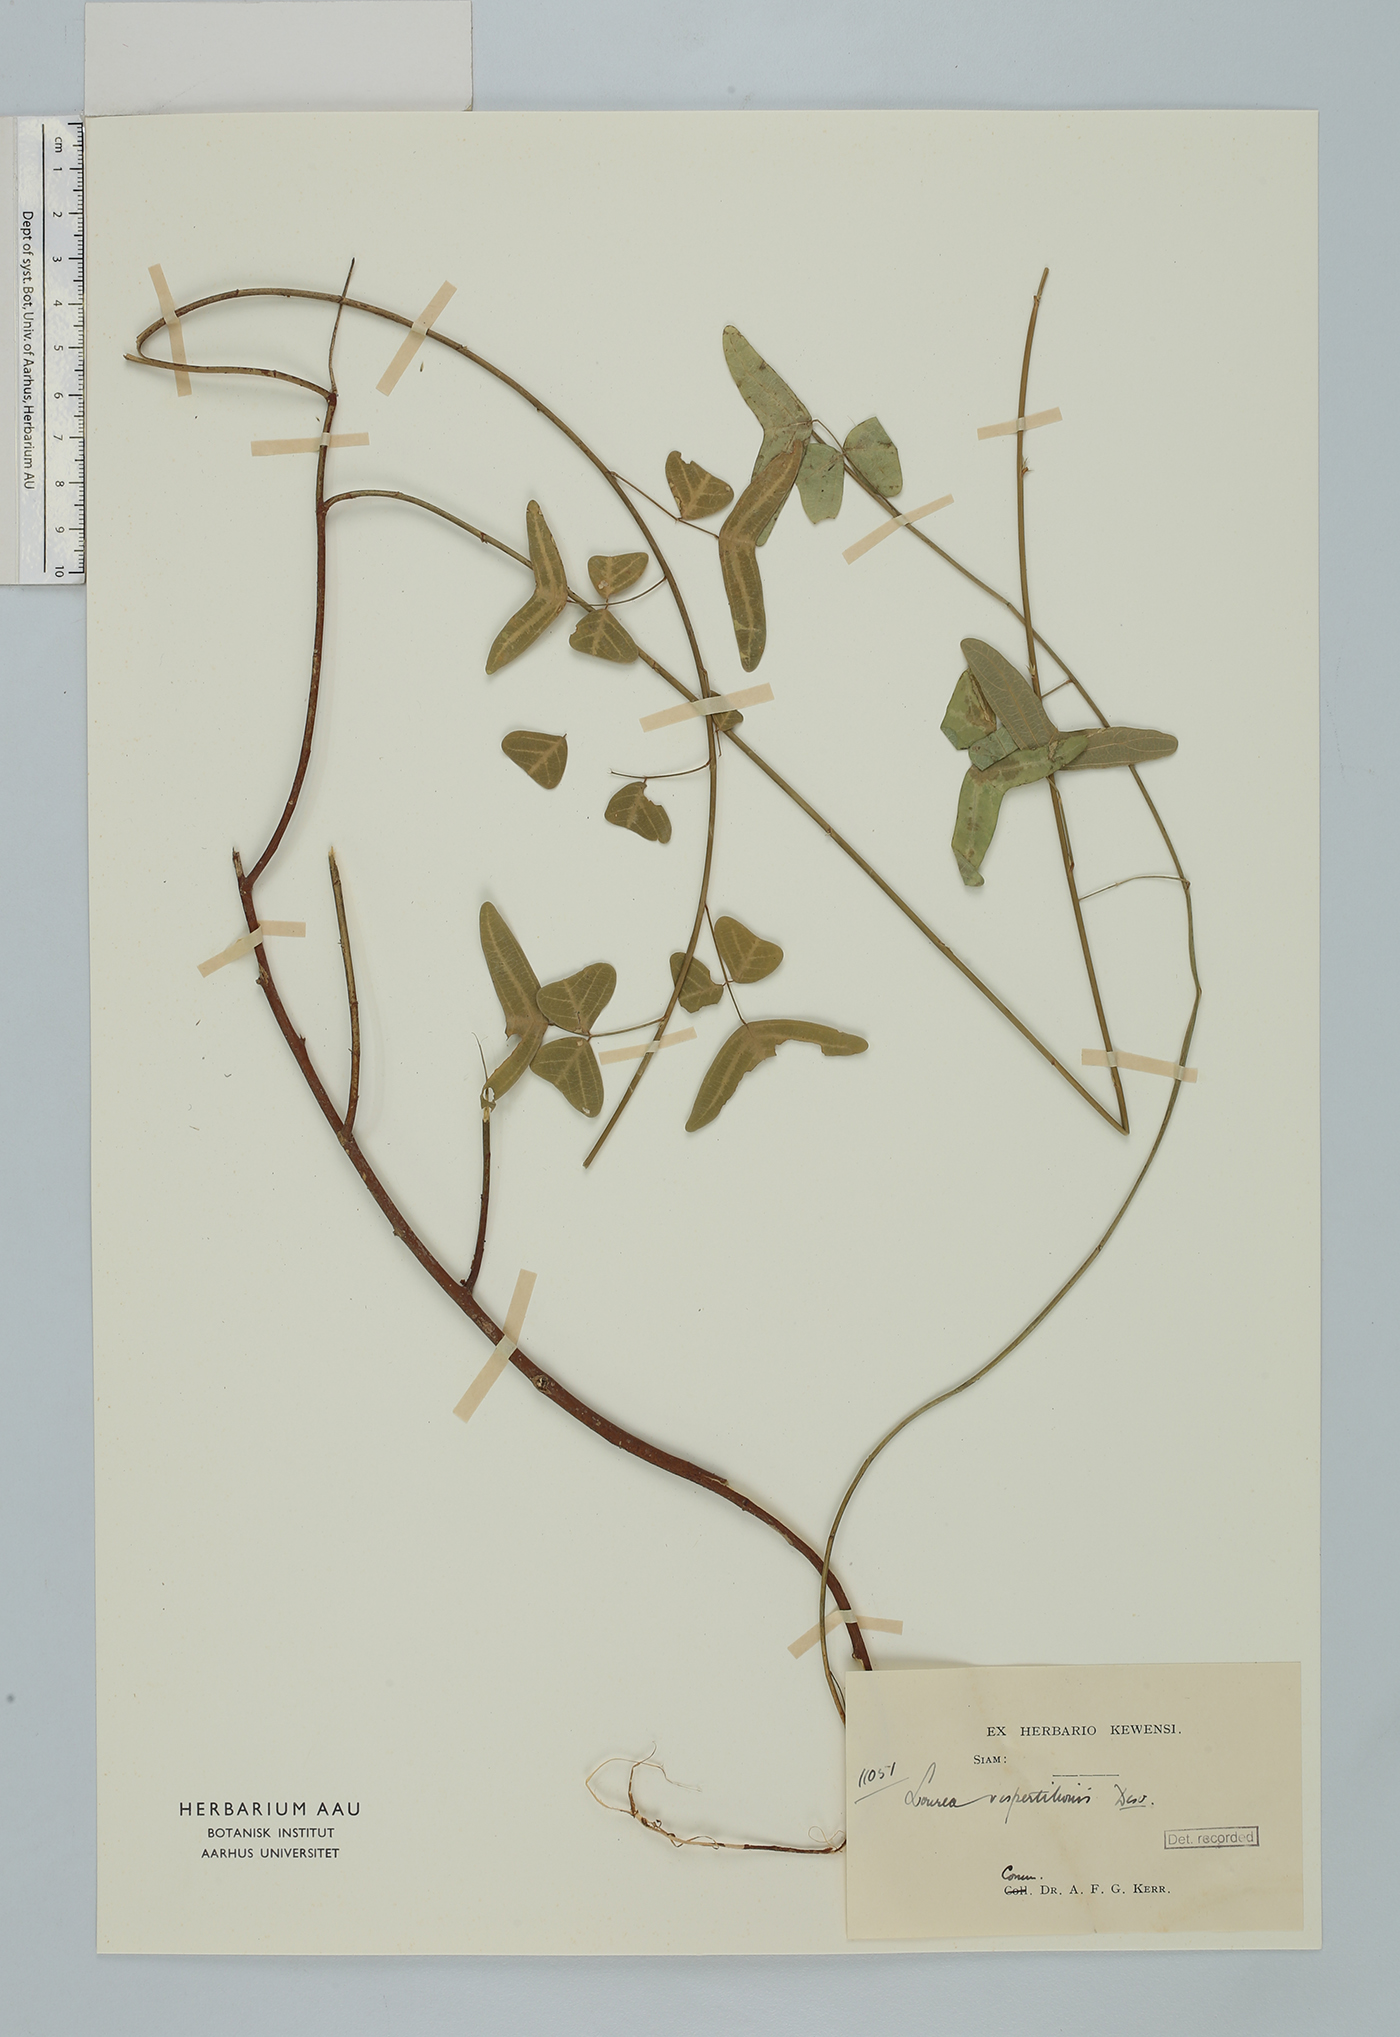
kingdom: Plantae
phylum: Tracheophyta
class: Magnoliopsida
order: Fabales
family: Fabaceae
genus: Christia
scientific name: Christia vespertilionis
